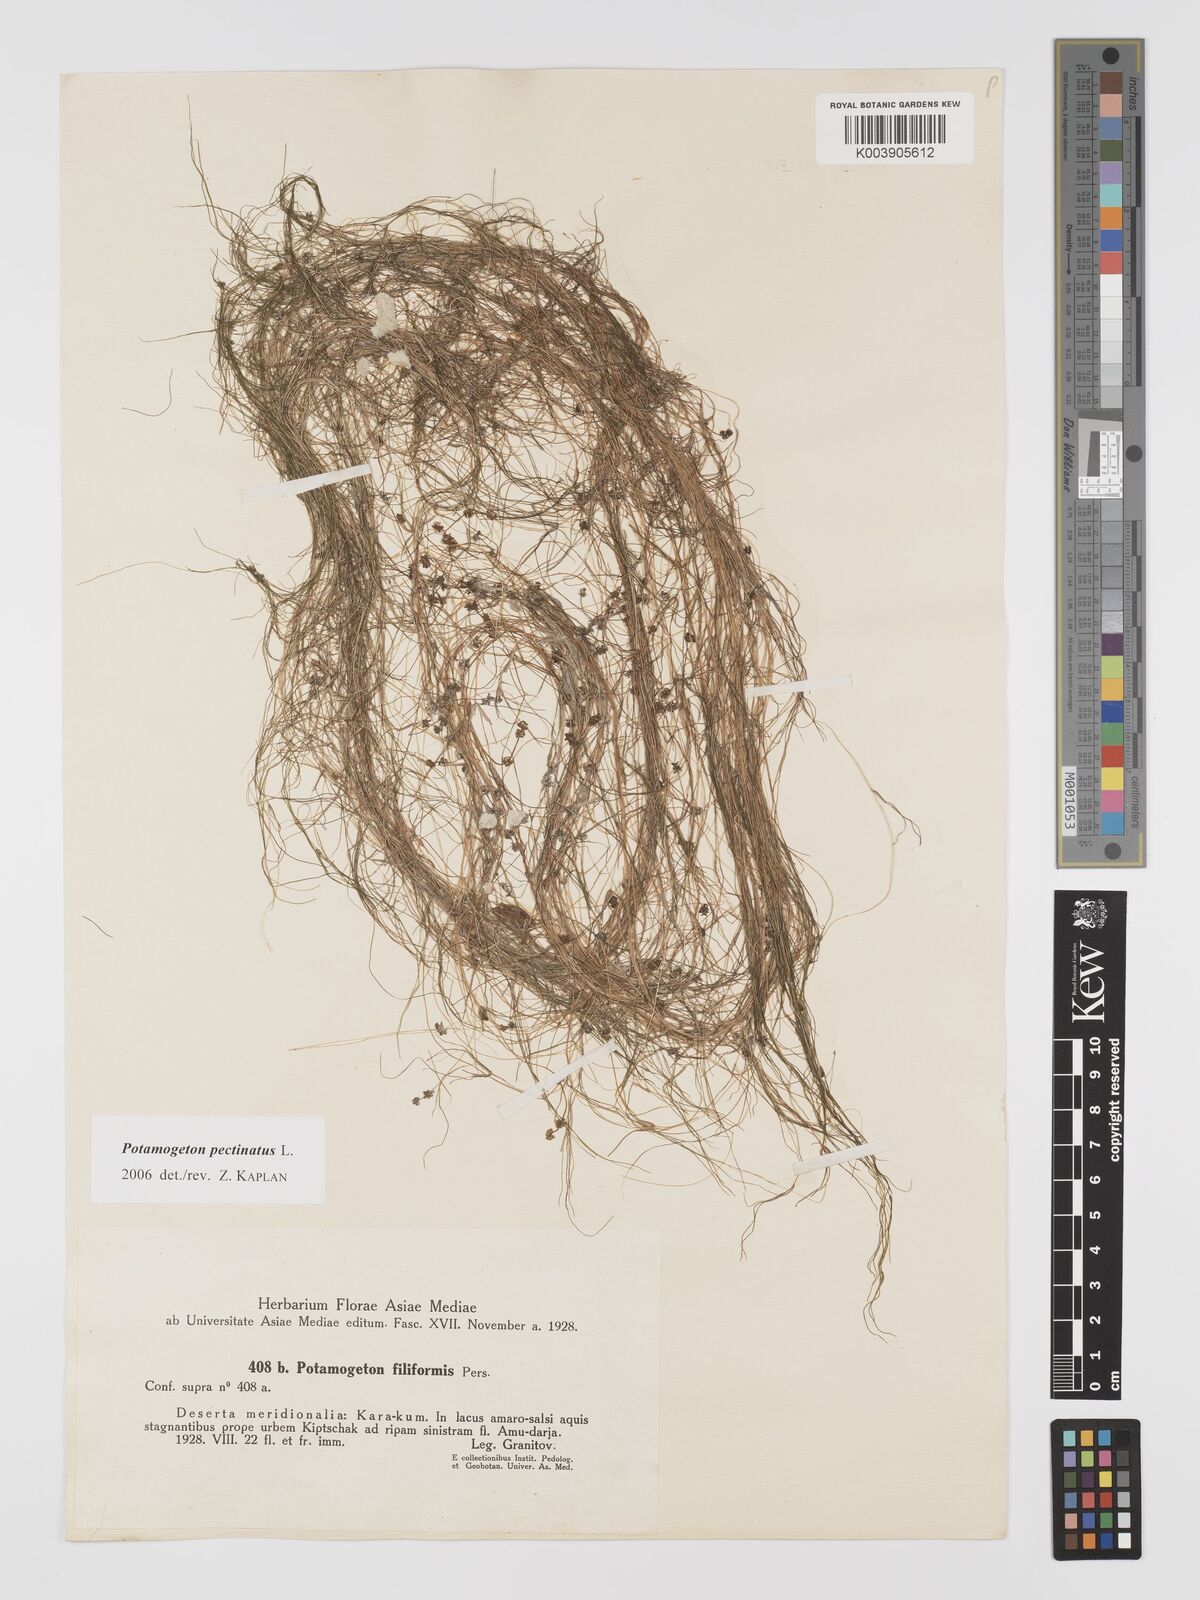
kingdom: Plantae
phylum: Tracheophyta
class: Liliopsida
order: Alismatales
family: Potamogetonaceae
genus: Stuckenia
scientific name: Stuckenia pectinata
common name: Sago pondweed
